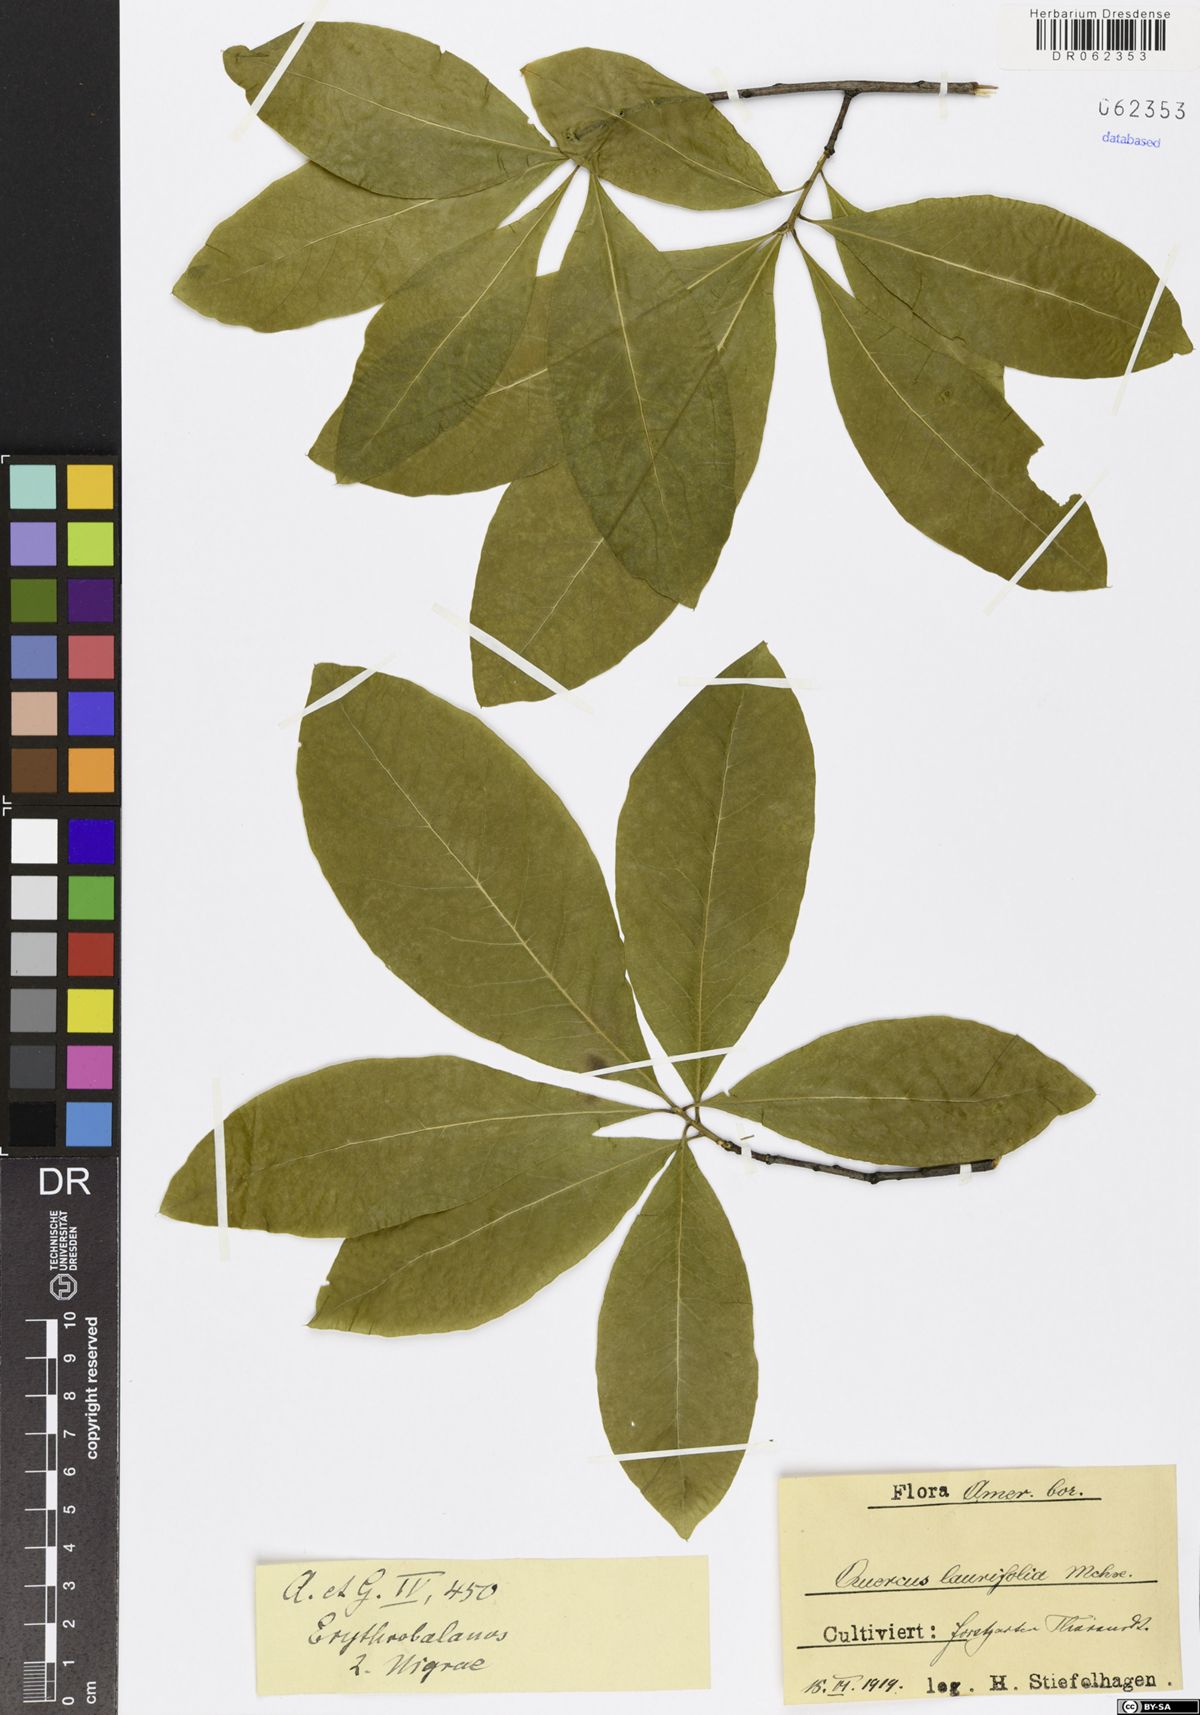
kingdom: Plantae
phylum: Tracheophyta
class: Magnoliopsida
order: Fagales
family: Fagaceae
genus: Quercus
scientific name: Quercus laurifolia
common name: Swamp laurel oak
